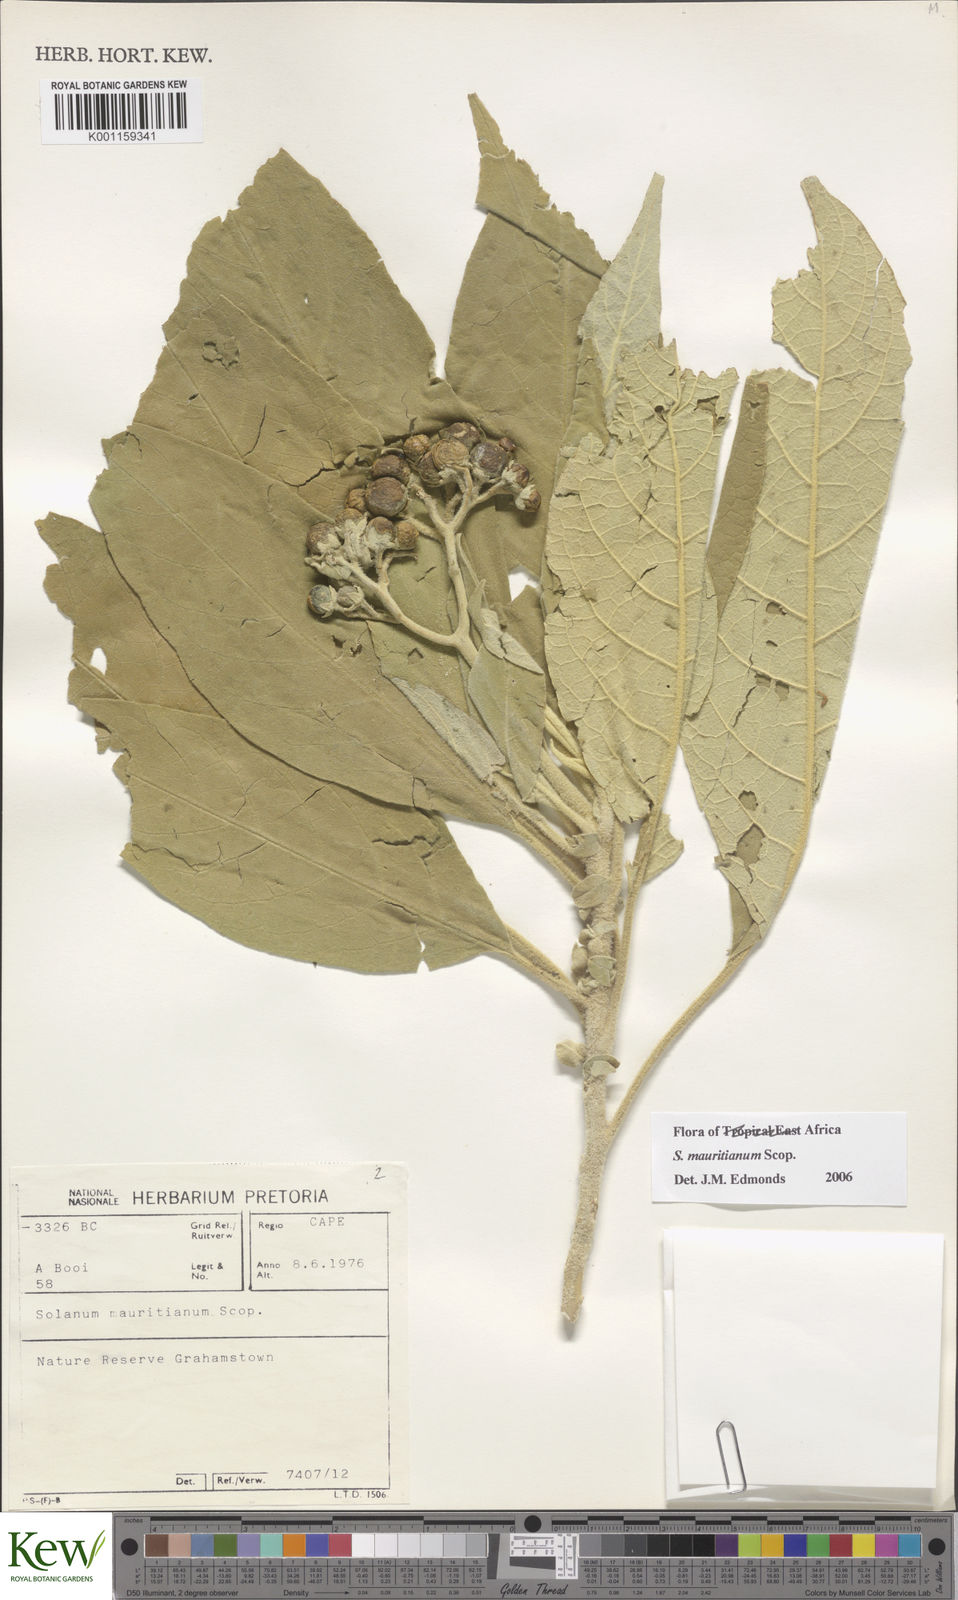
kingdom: Plantae
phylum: Tracheophyta
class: Magnoliopsida
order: Solanales
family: Solanaceae
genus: Solanum
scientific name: Solanum mauritianum
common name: Earleaf nightshade
